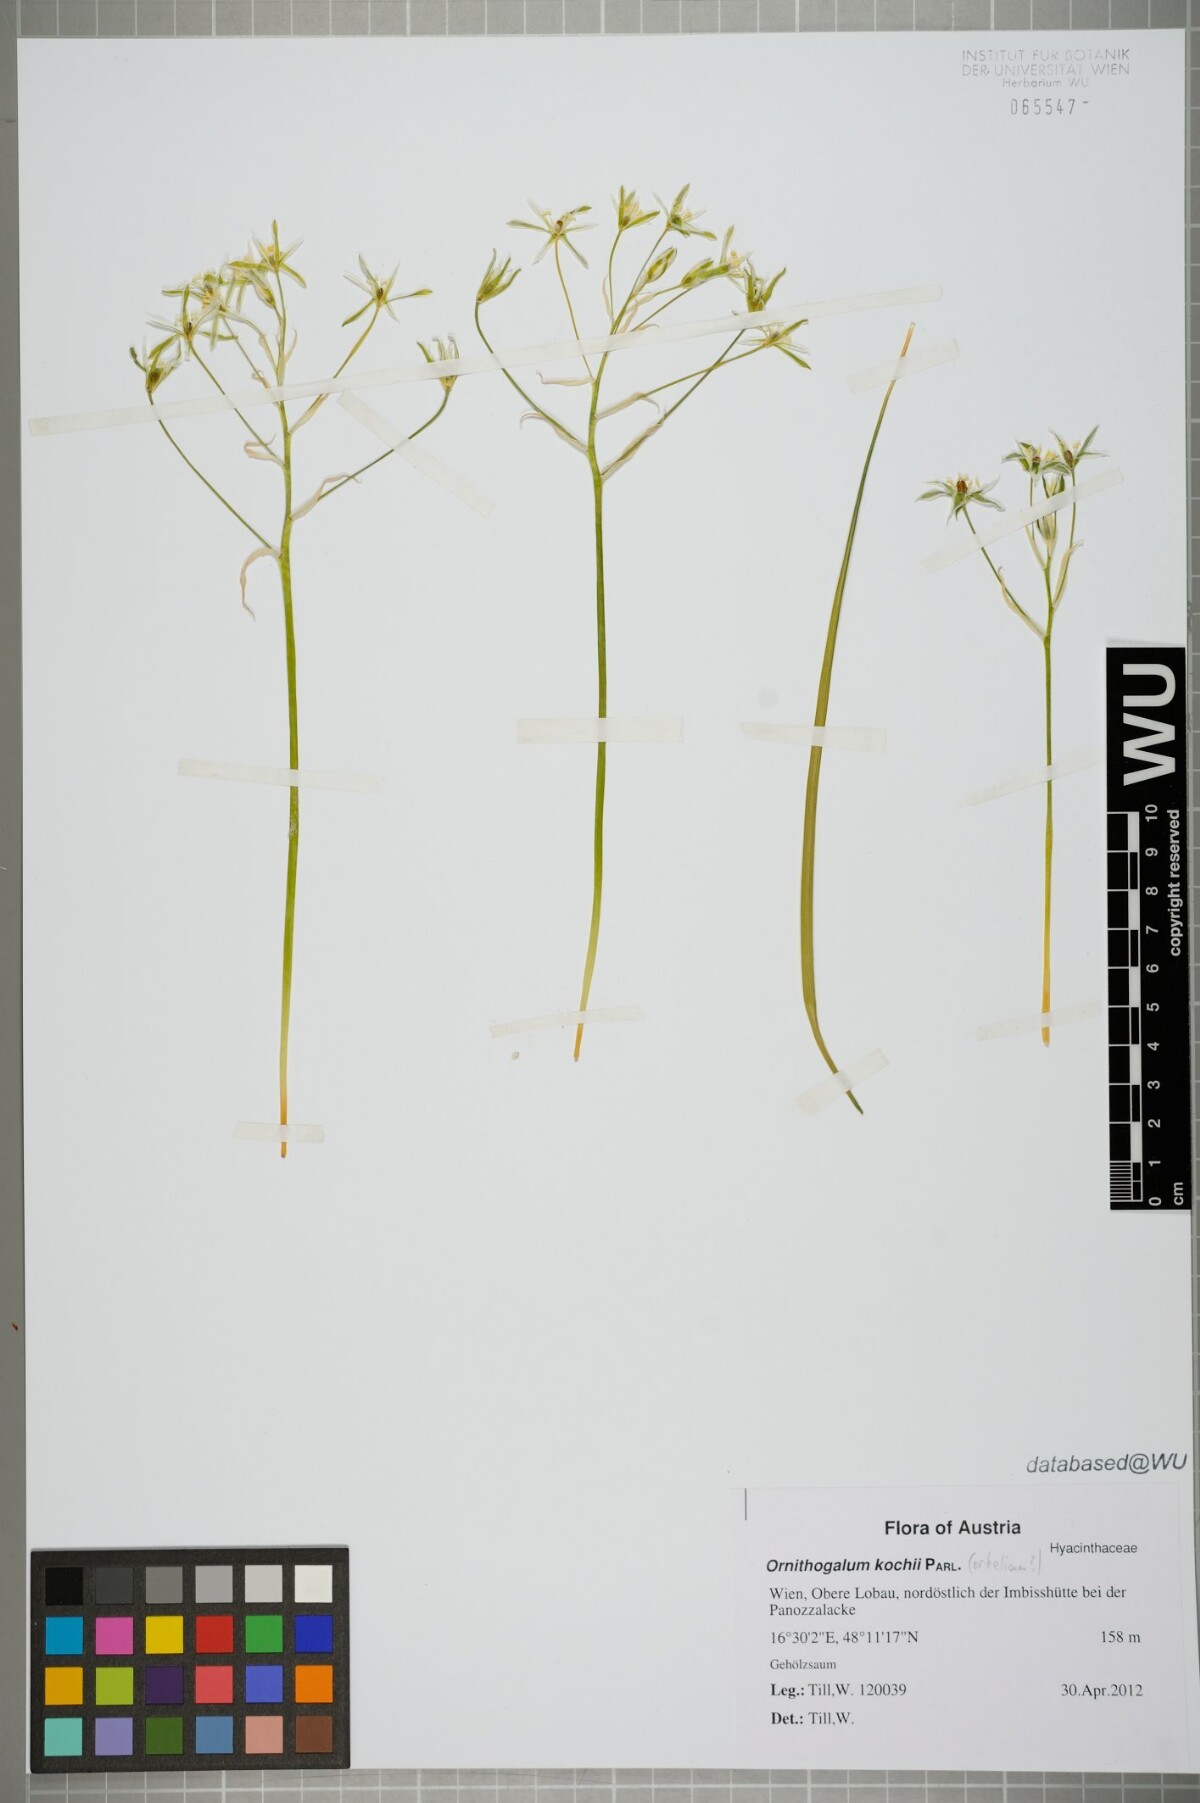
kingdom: Plantae
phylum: Tracheophyta
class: Liliopsida
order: Asparagales
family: Asparagaceae
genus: Ornithogalum
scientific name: Ornithogalum orthophyllum
